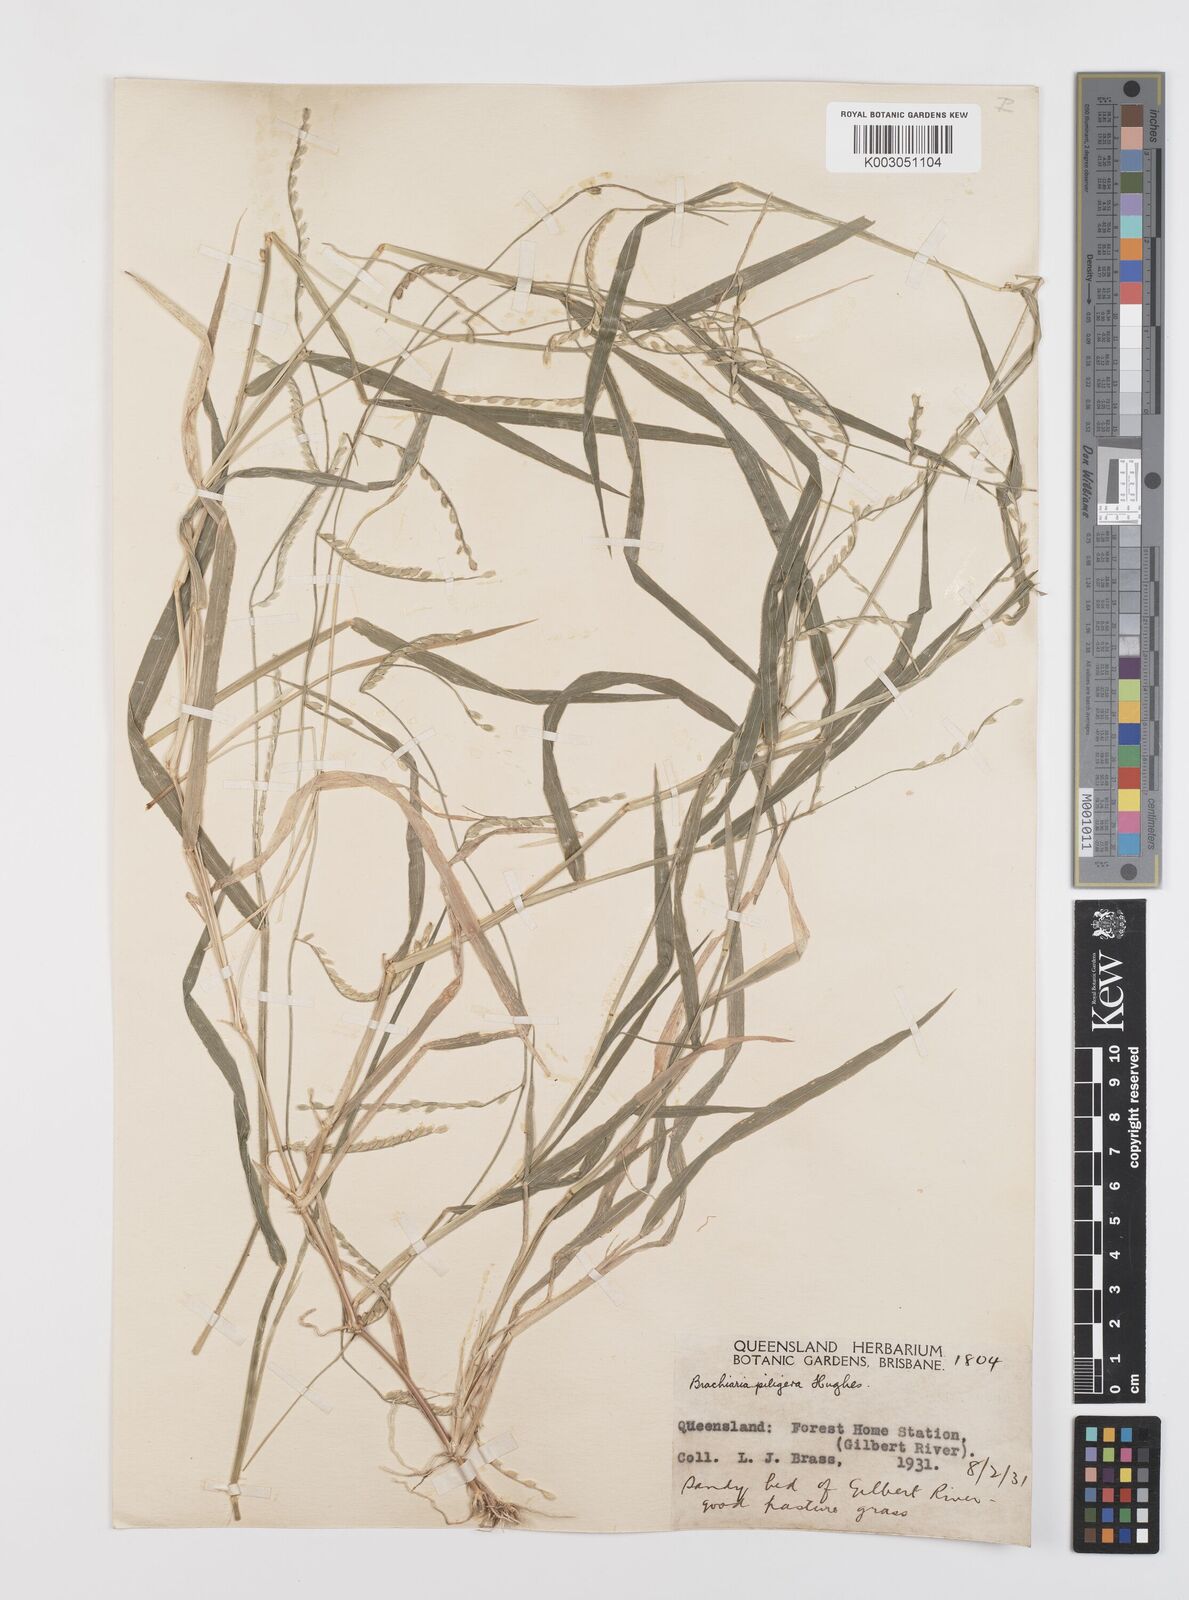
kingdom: Plantae
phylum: Tracheophyta
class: Liliopsida
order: Poales
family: Poaceae
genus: Urochloa
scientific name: Urochloa piligera
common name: Wattle signalgrass
